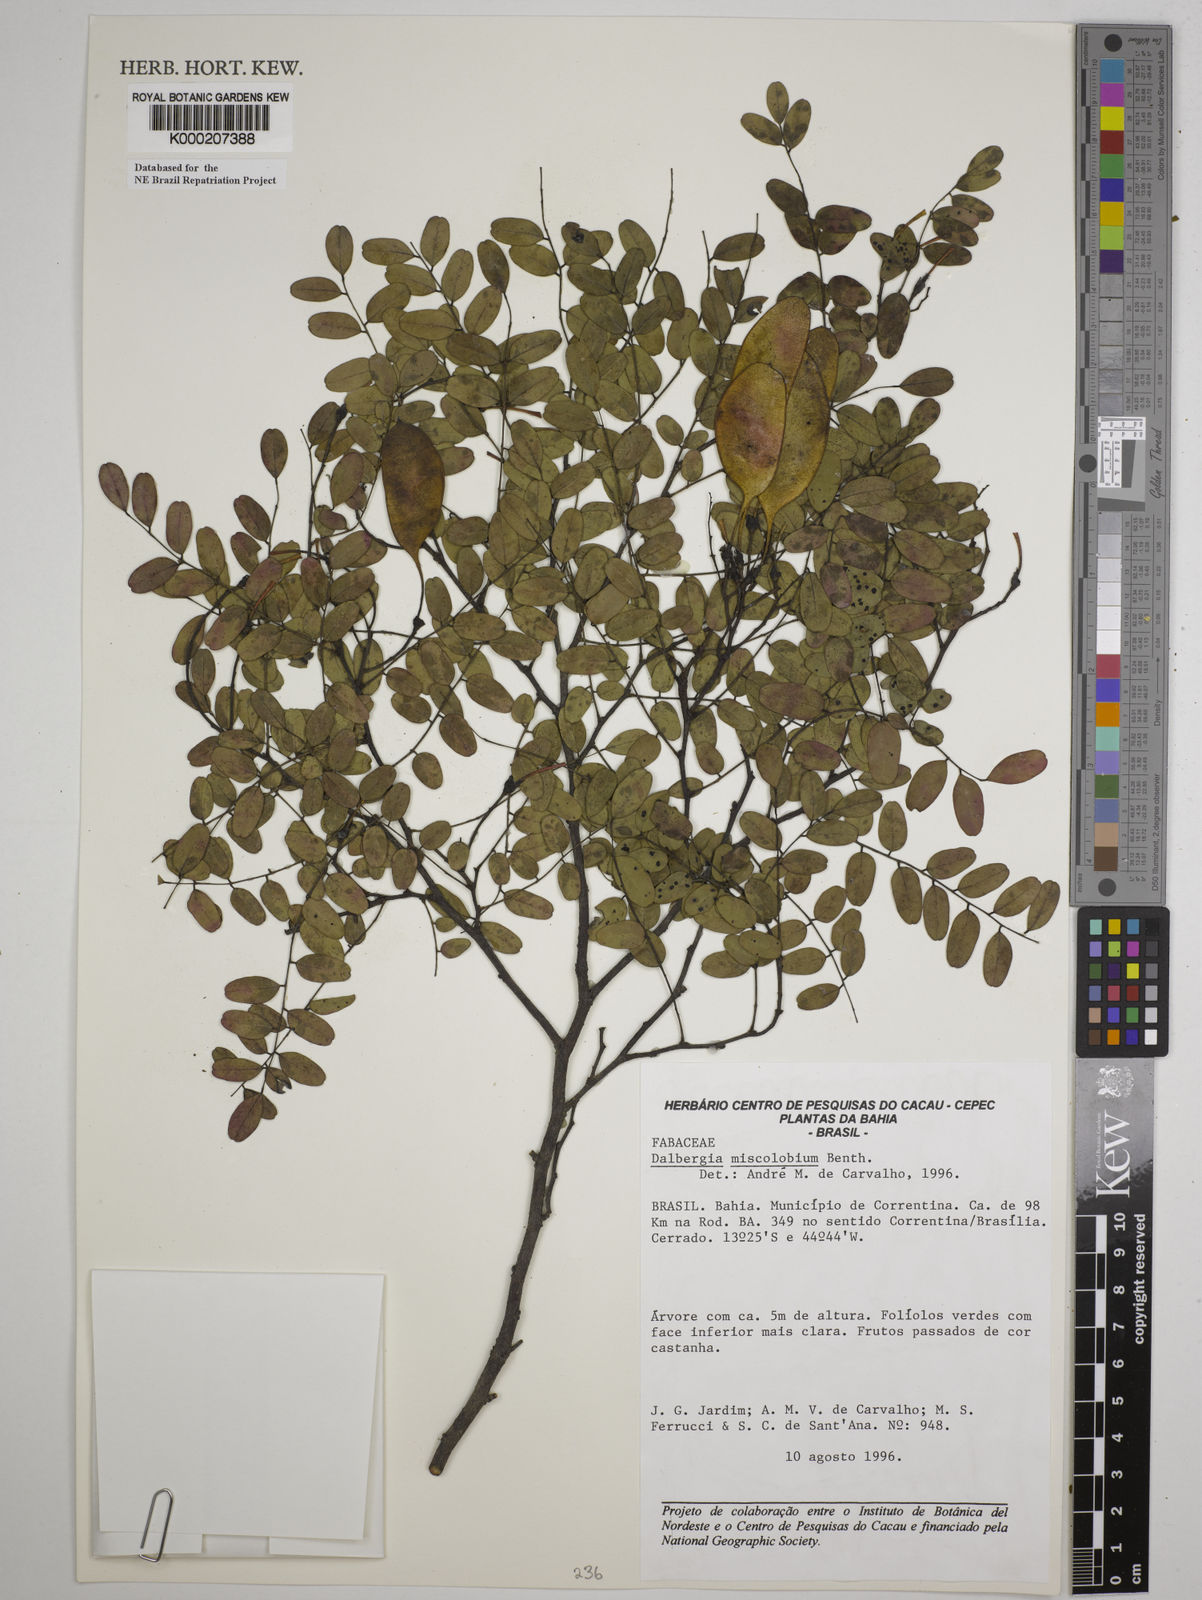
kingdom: Plantae
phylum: Tracheophyta
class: Magnoliopsida
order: Fabales
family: Fabaceae
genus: Dalbergia
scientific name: Dalbergia miscolobium
